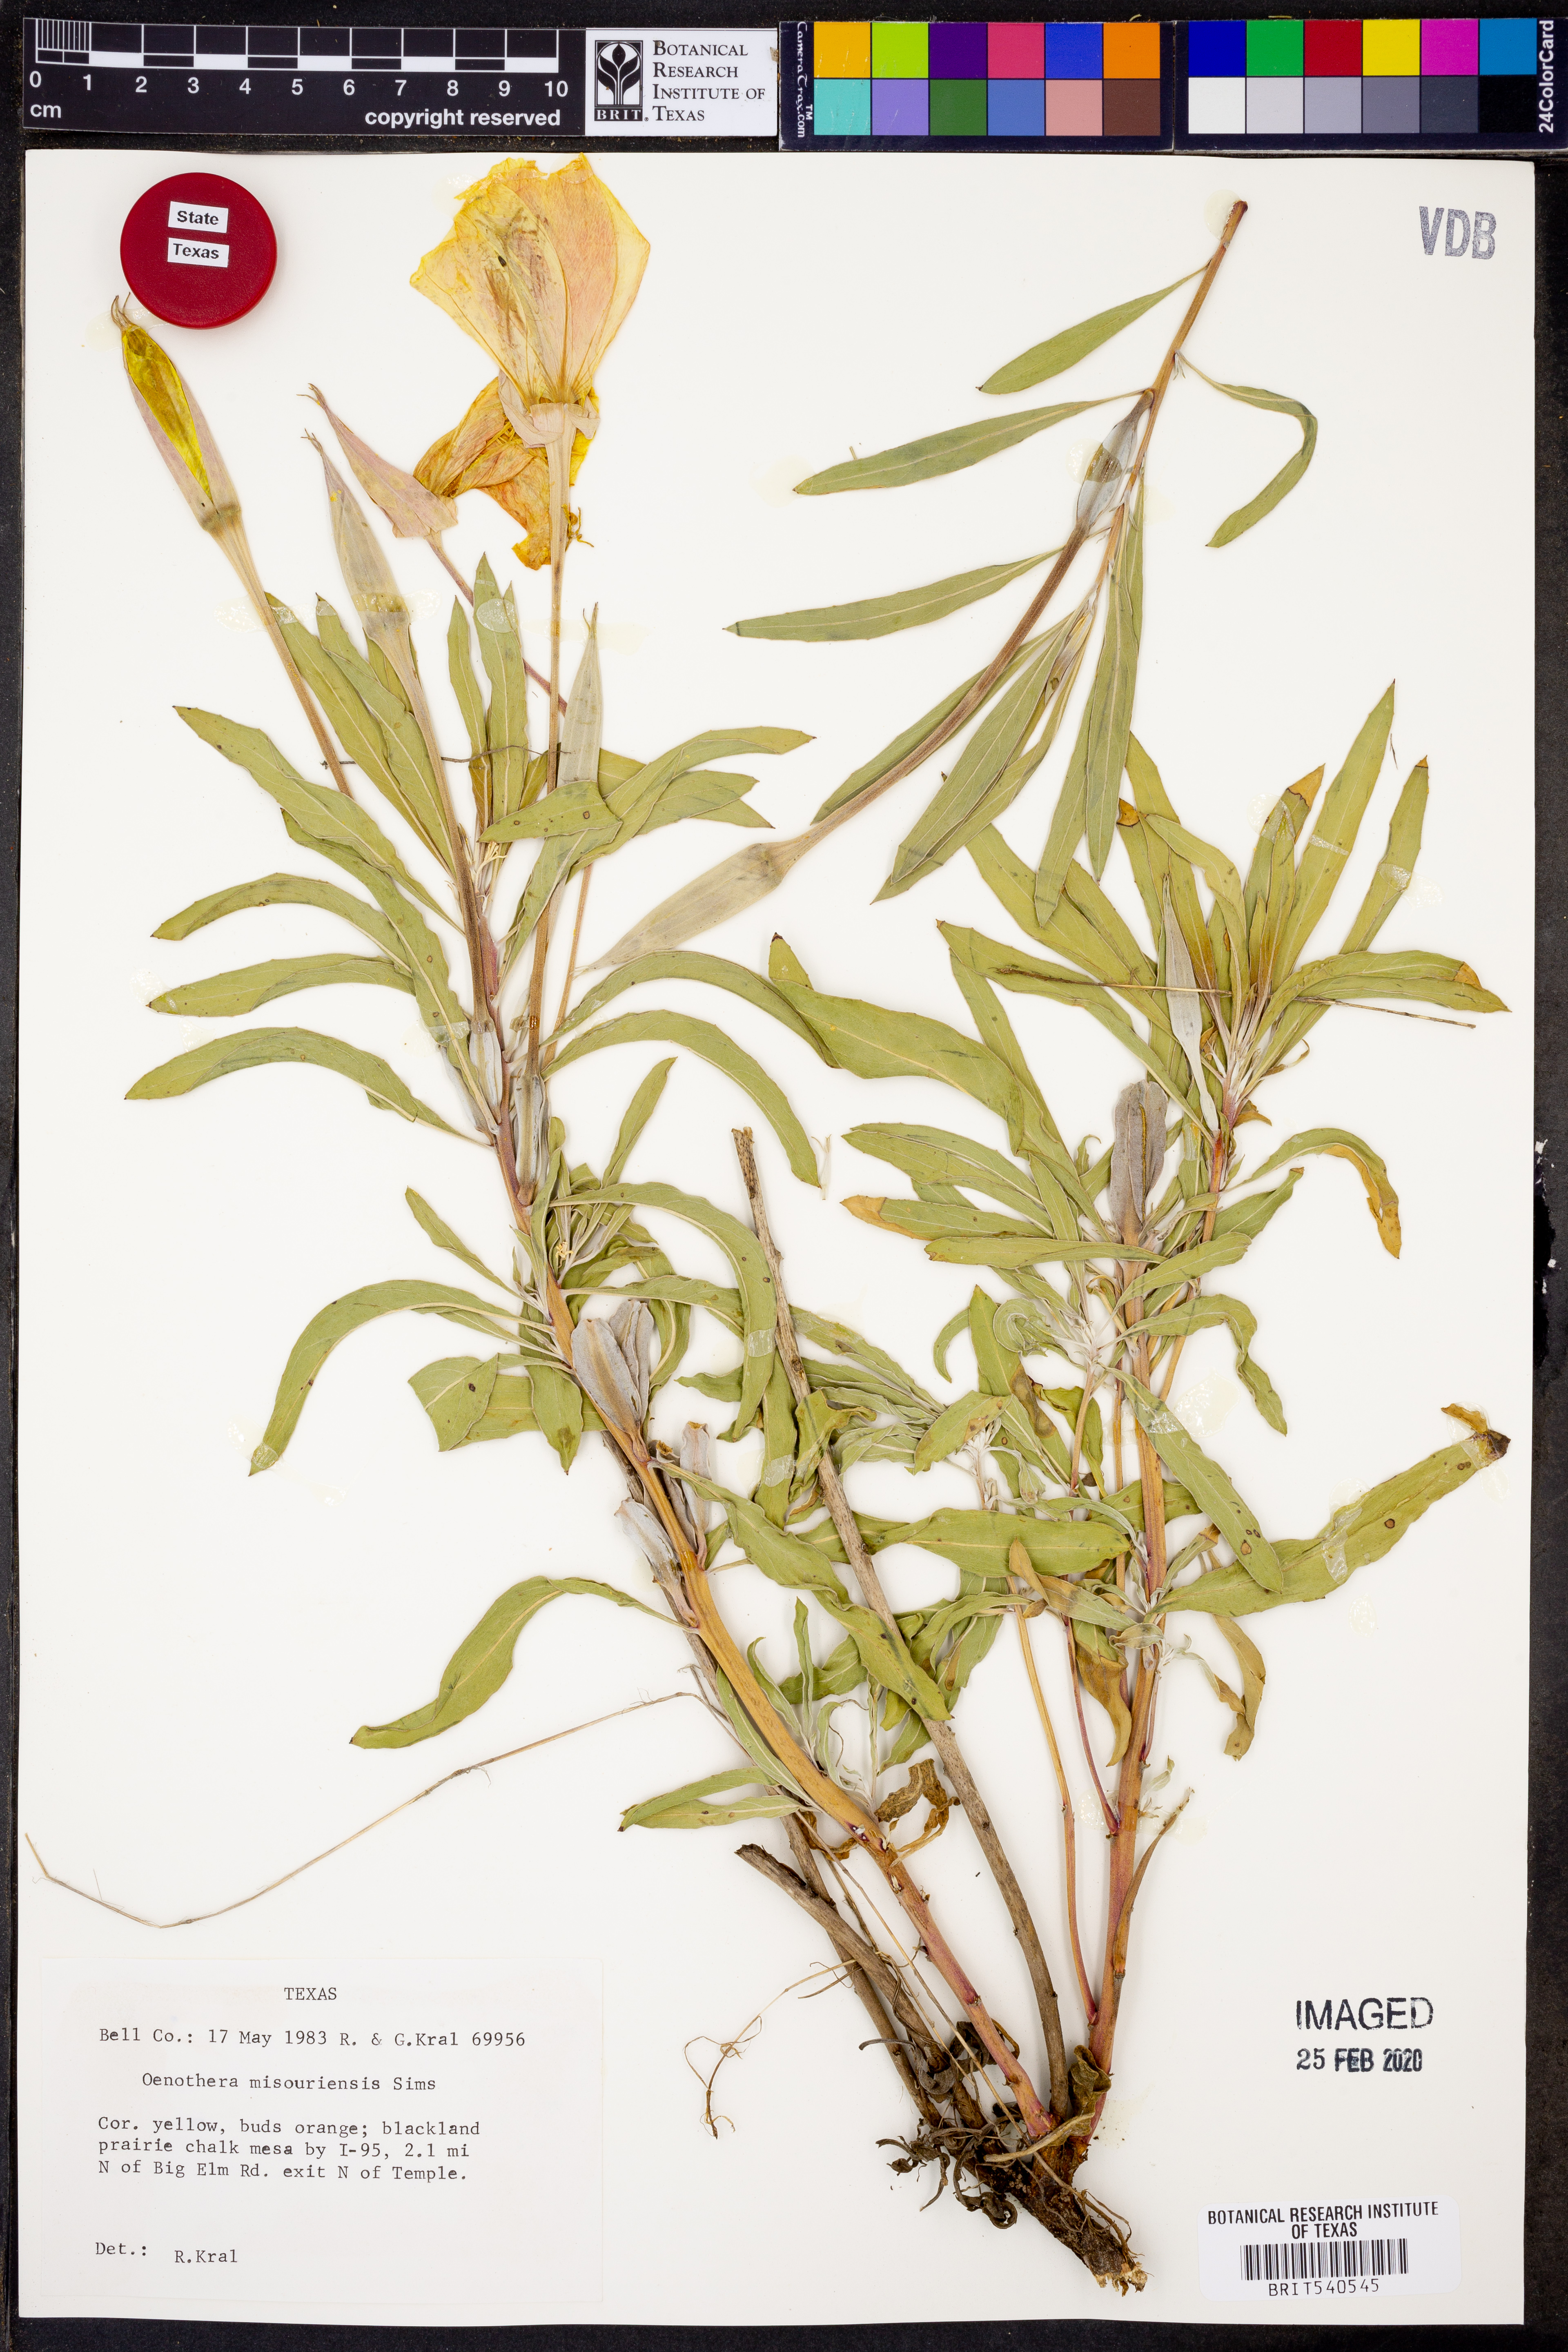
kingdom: Plantae
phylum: Tracheophyta
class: Magnoliopsida
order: Myrtales
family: Onagraceae
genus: Oenothera
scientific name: Oenothera macrocarpa
